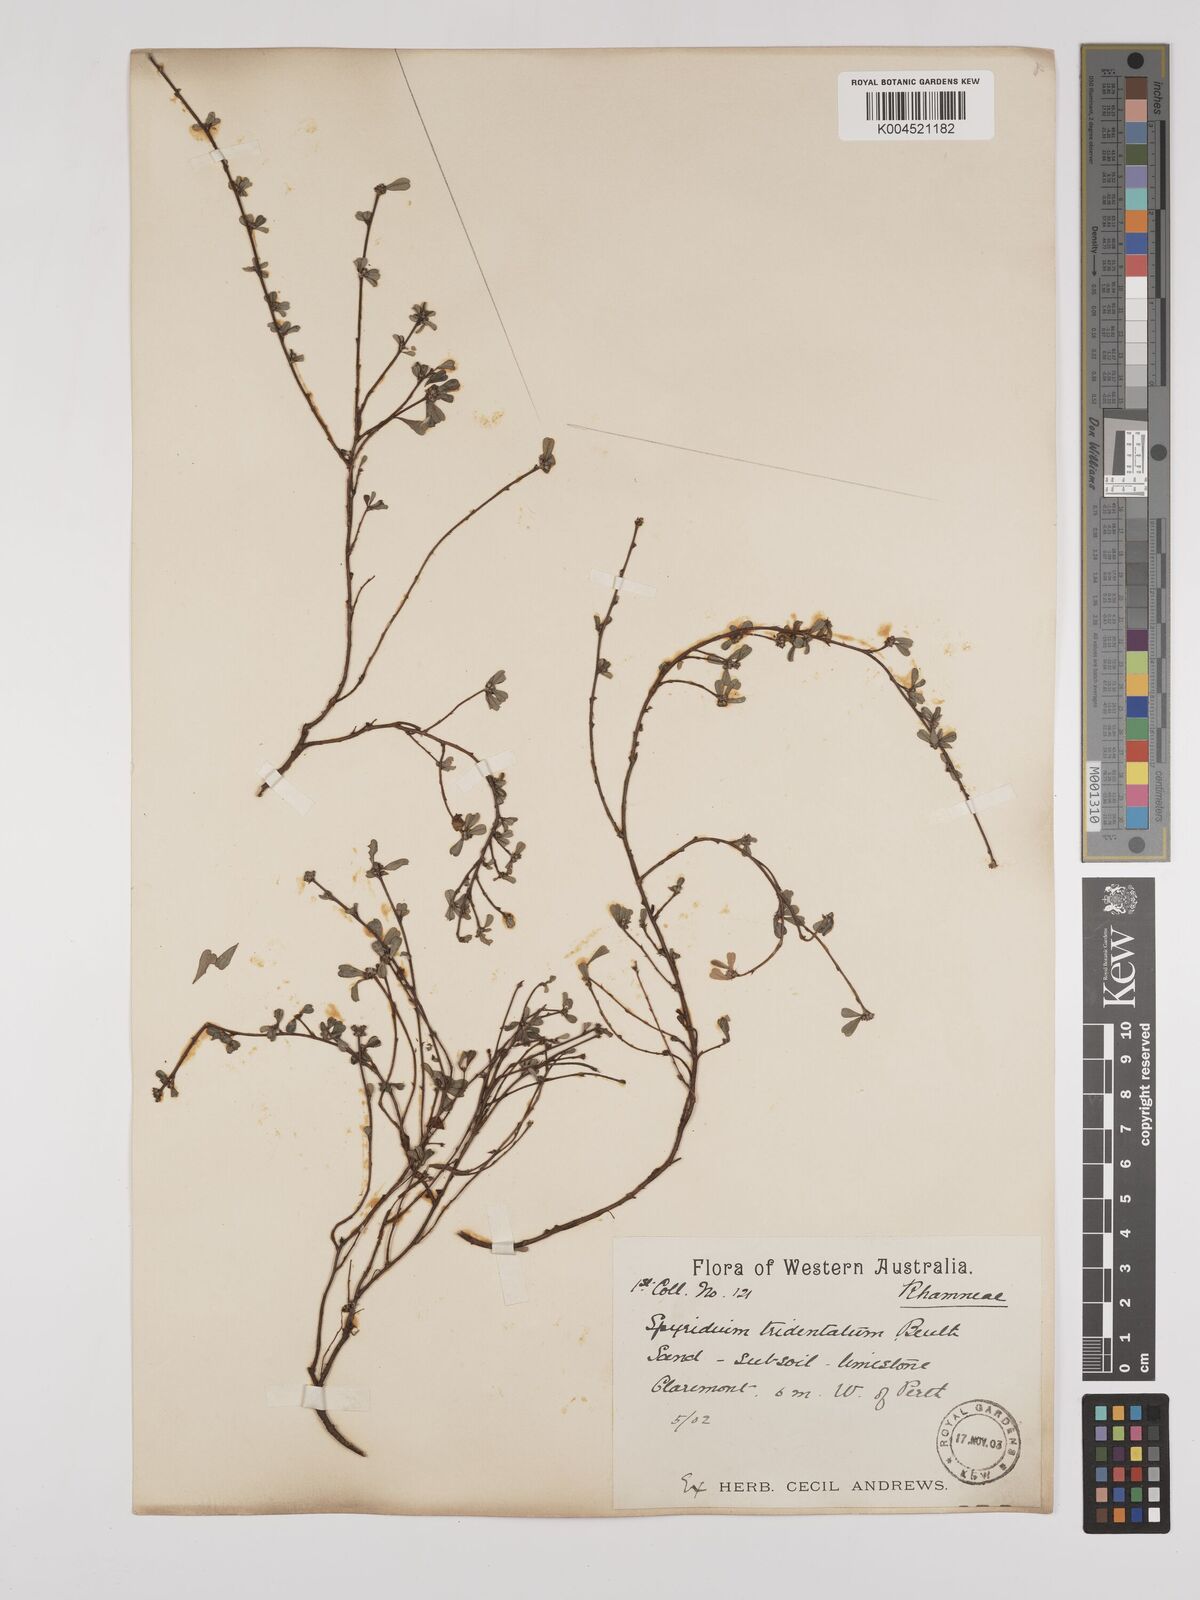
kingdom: Plantae
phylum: Tracheophyta
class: Magnoliopsida
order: Rosales
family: Rhamnaceae
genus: Stenanthemum
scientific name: Stenanthemum tridentatum
